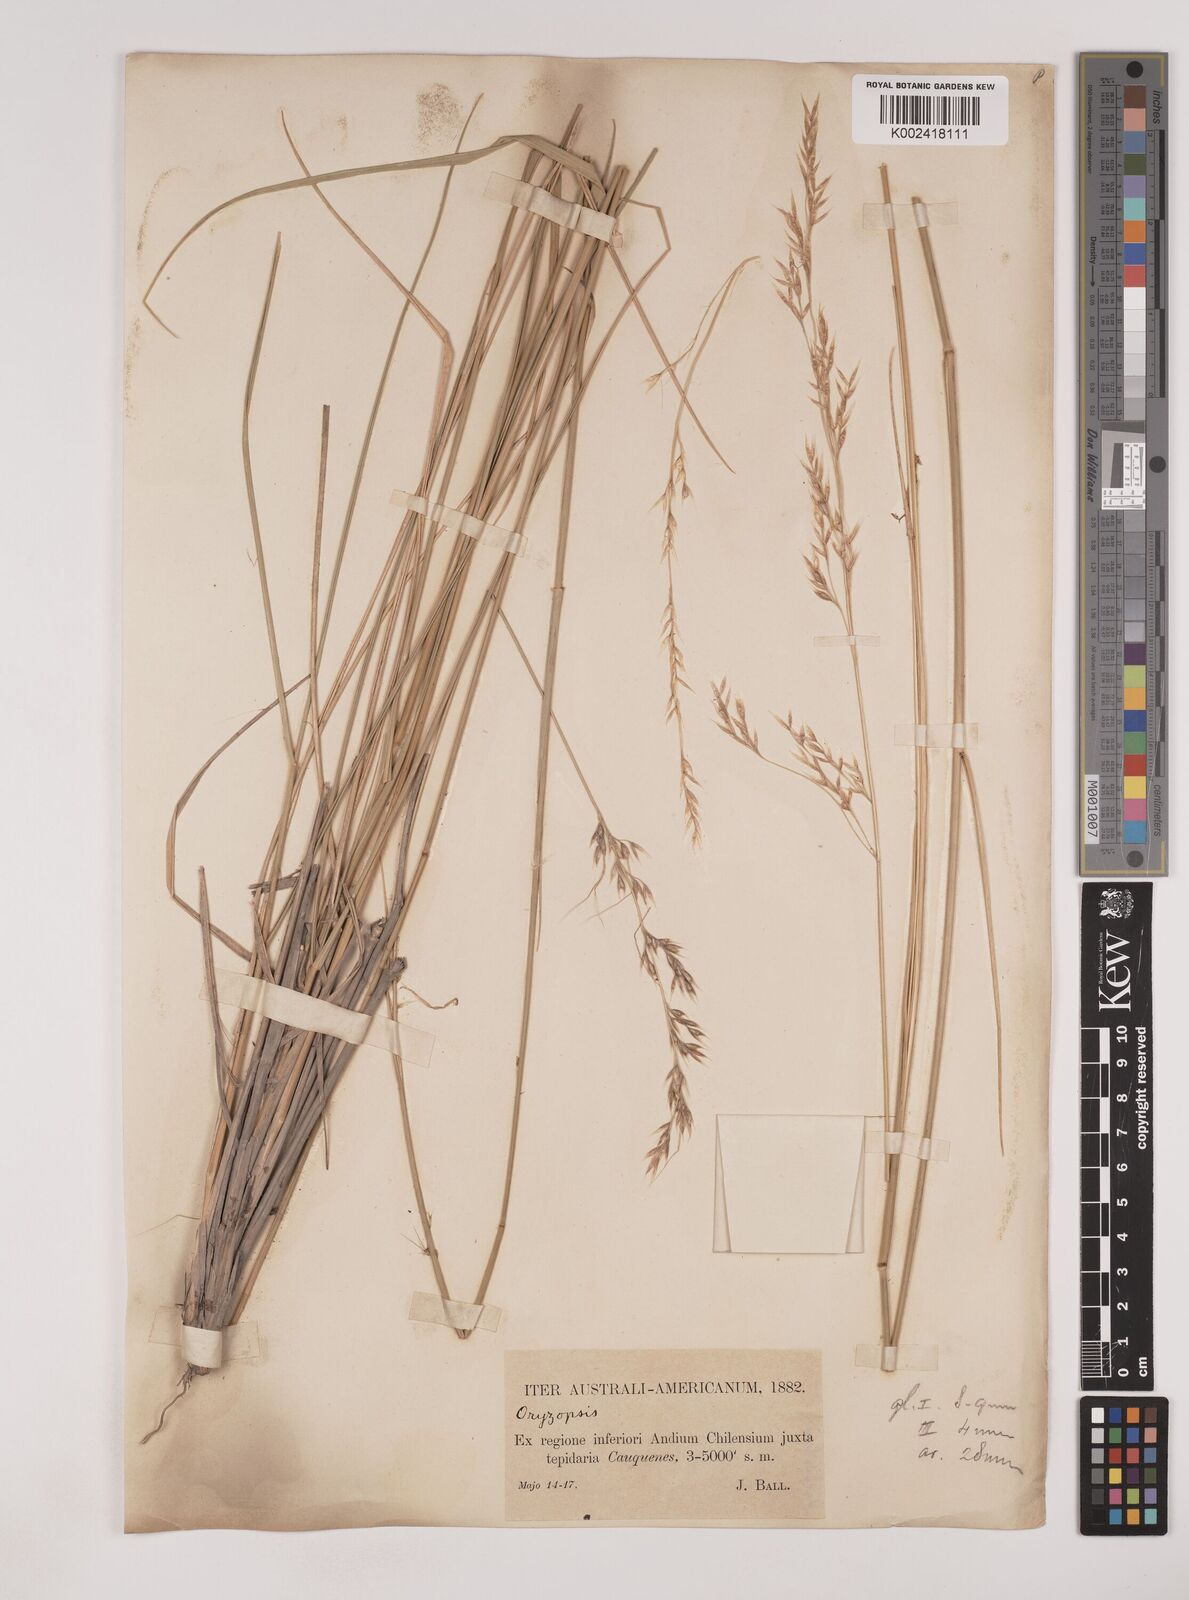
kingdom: Plantae
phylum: Tracheophyta
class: Liliopsida
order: Poales
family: Poaceae
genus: Nassella
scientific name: Nassella
